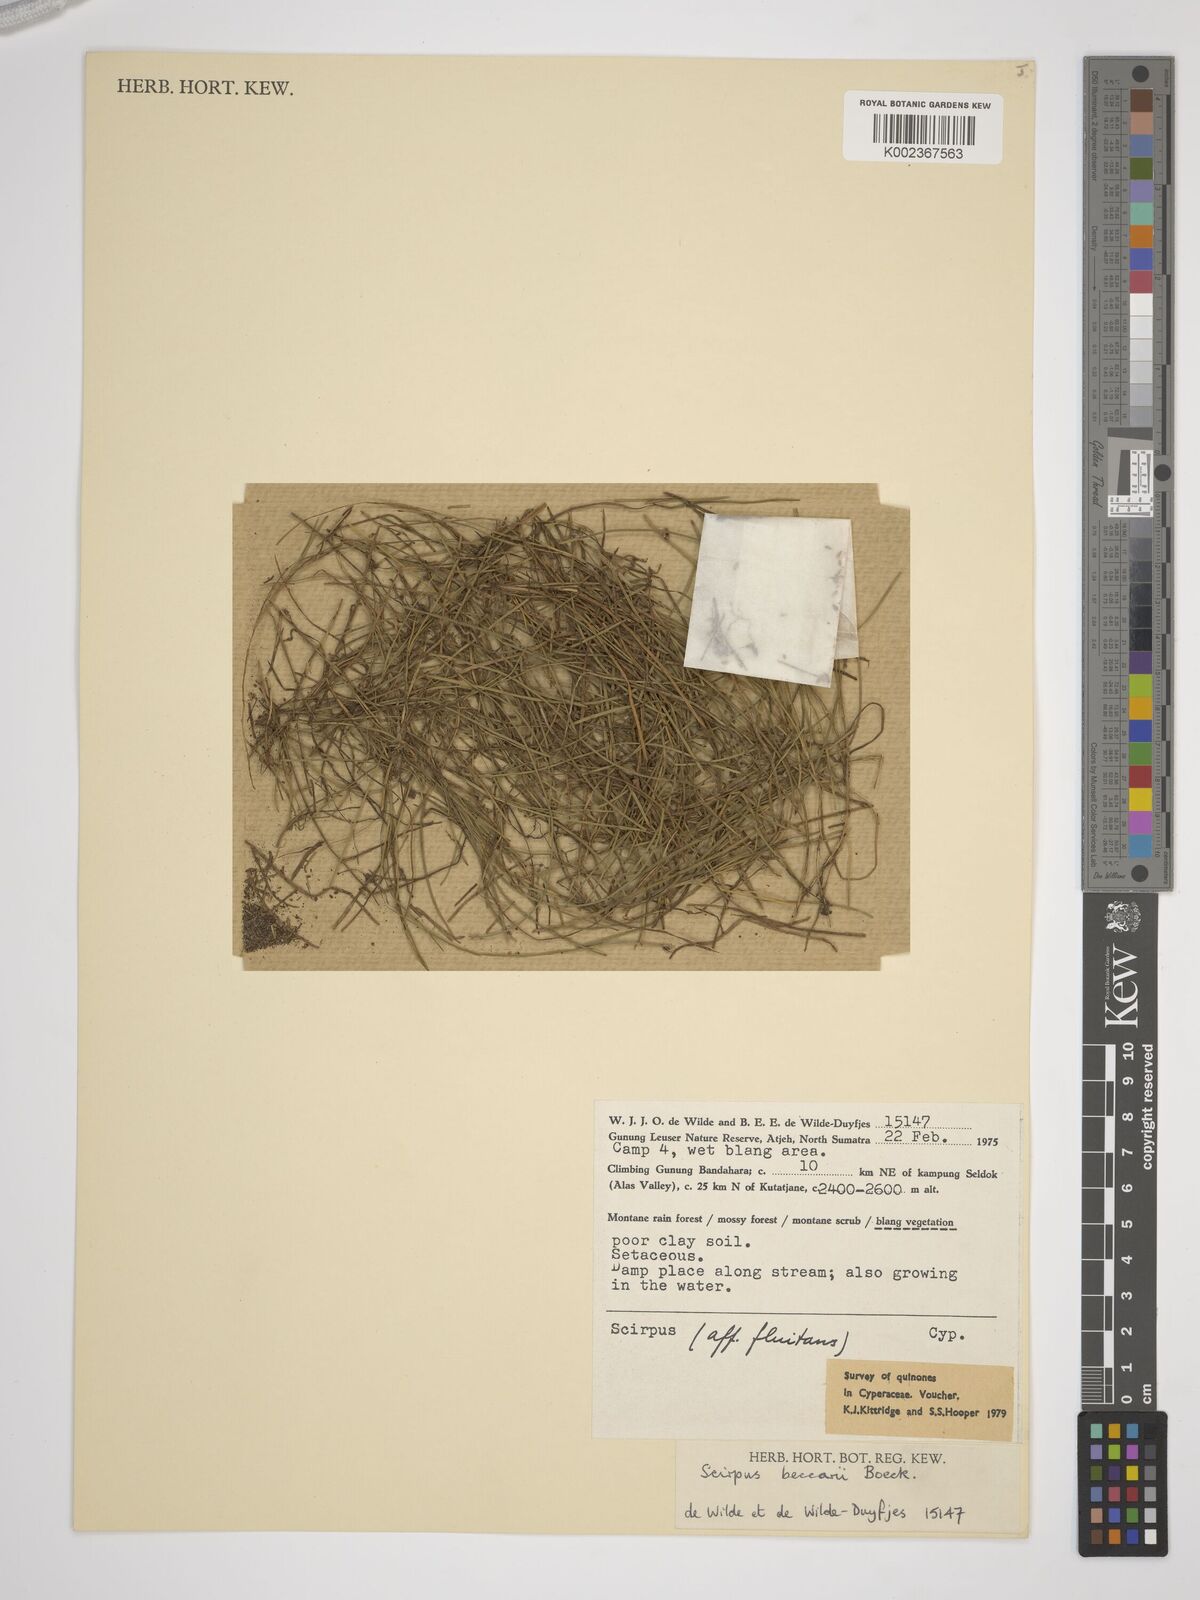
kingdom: Plantae
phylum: Tracheophyta
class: Liliopsida
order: Poales
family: Cyperaceae
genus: Isolepis
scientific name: Isolepis beccarii
